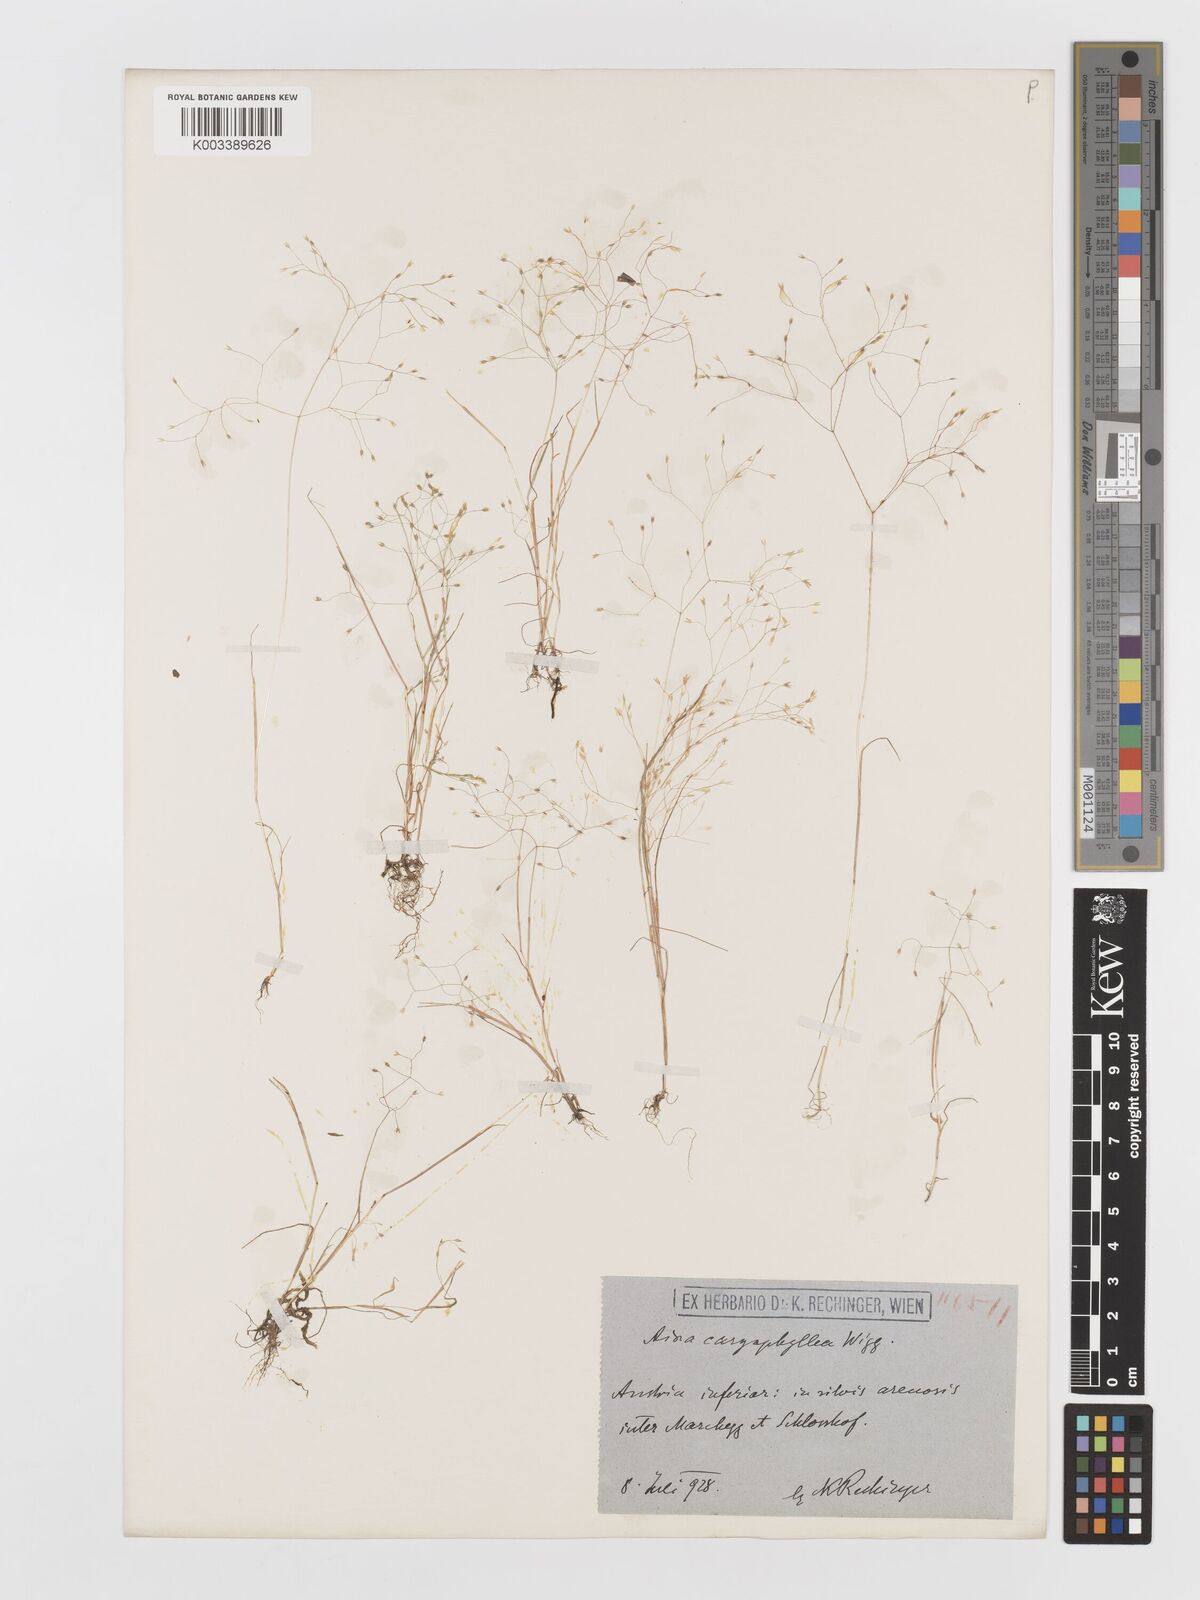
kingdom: Plantae
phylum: Tracheophyta
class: Liliopsida
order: Poales
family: Poaceae
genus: Aira
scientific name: Aira caryophyllea
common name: Silver hairgrass
